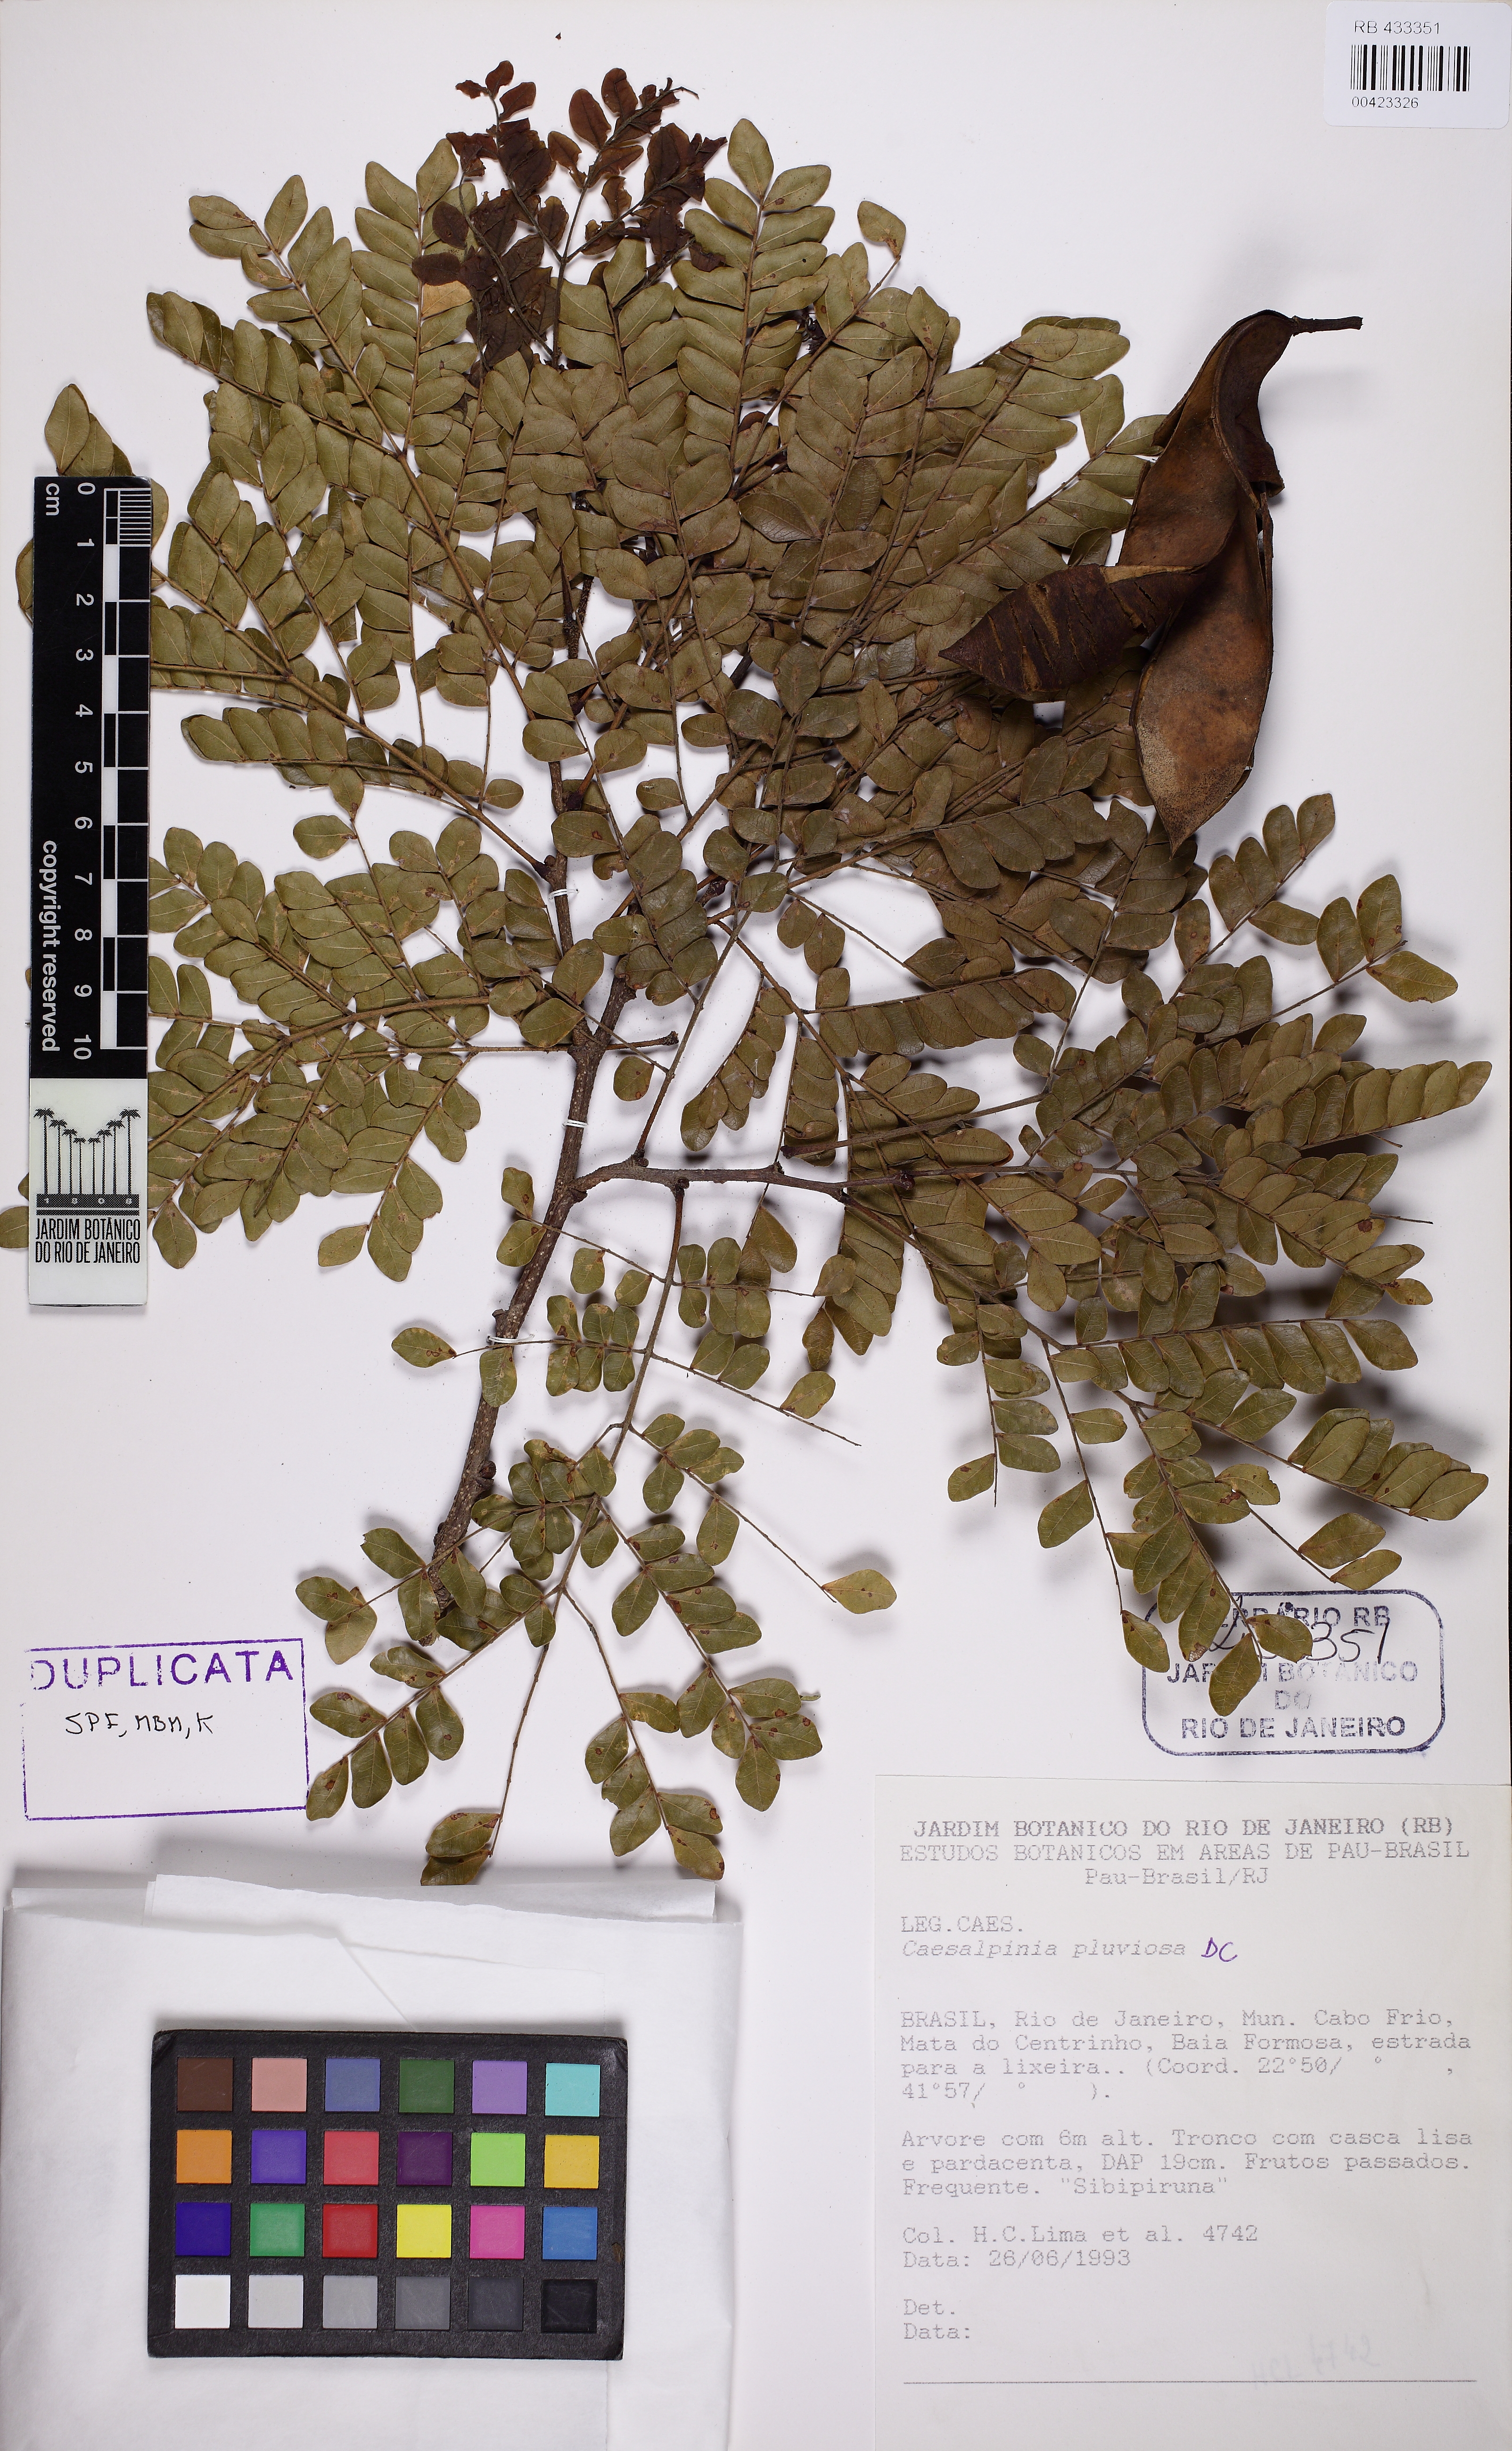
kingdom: Plantae
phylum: Tracheophyta
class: Magnoliopsida
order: Fabales
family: Fabaceae
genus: Cenostigma
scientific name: Cenostigma pluviosum
